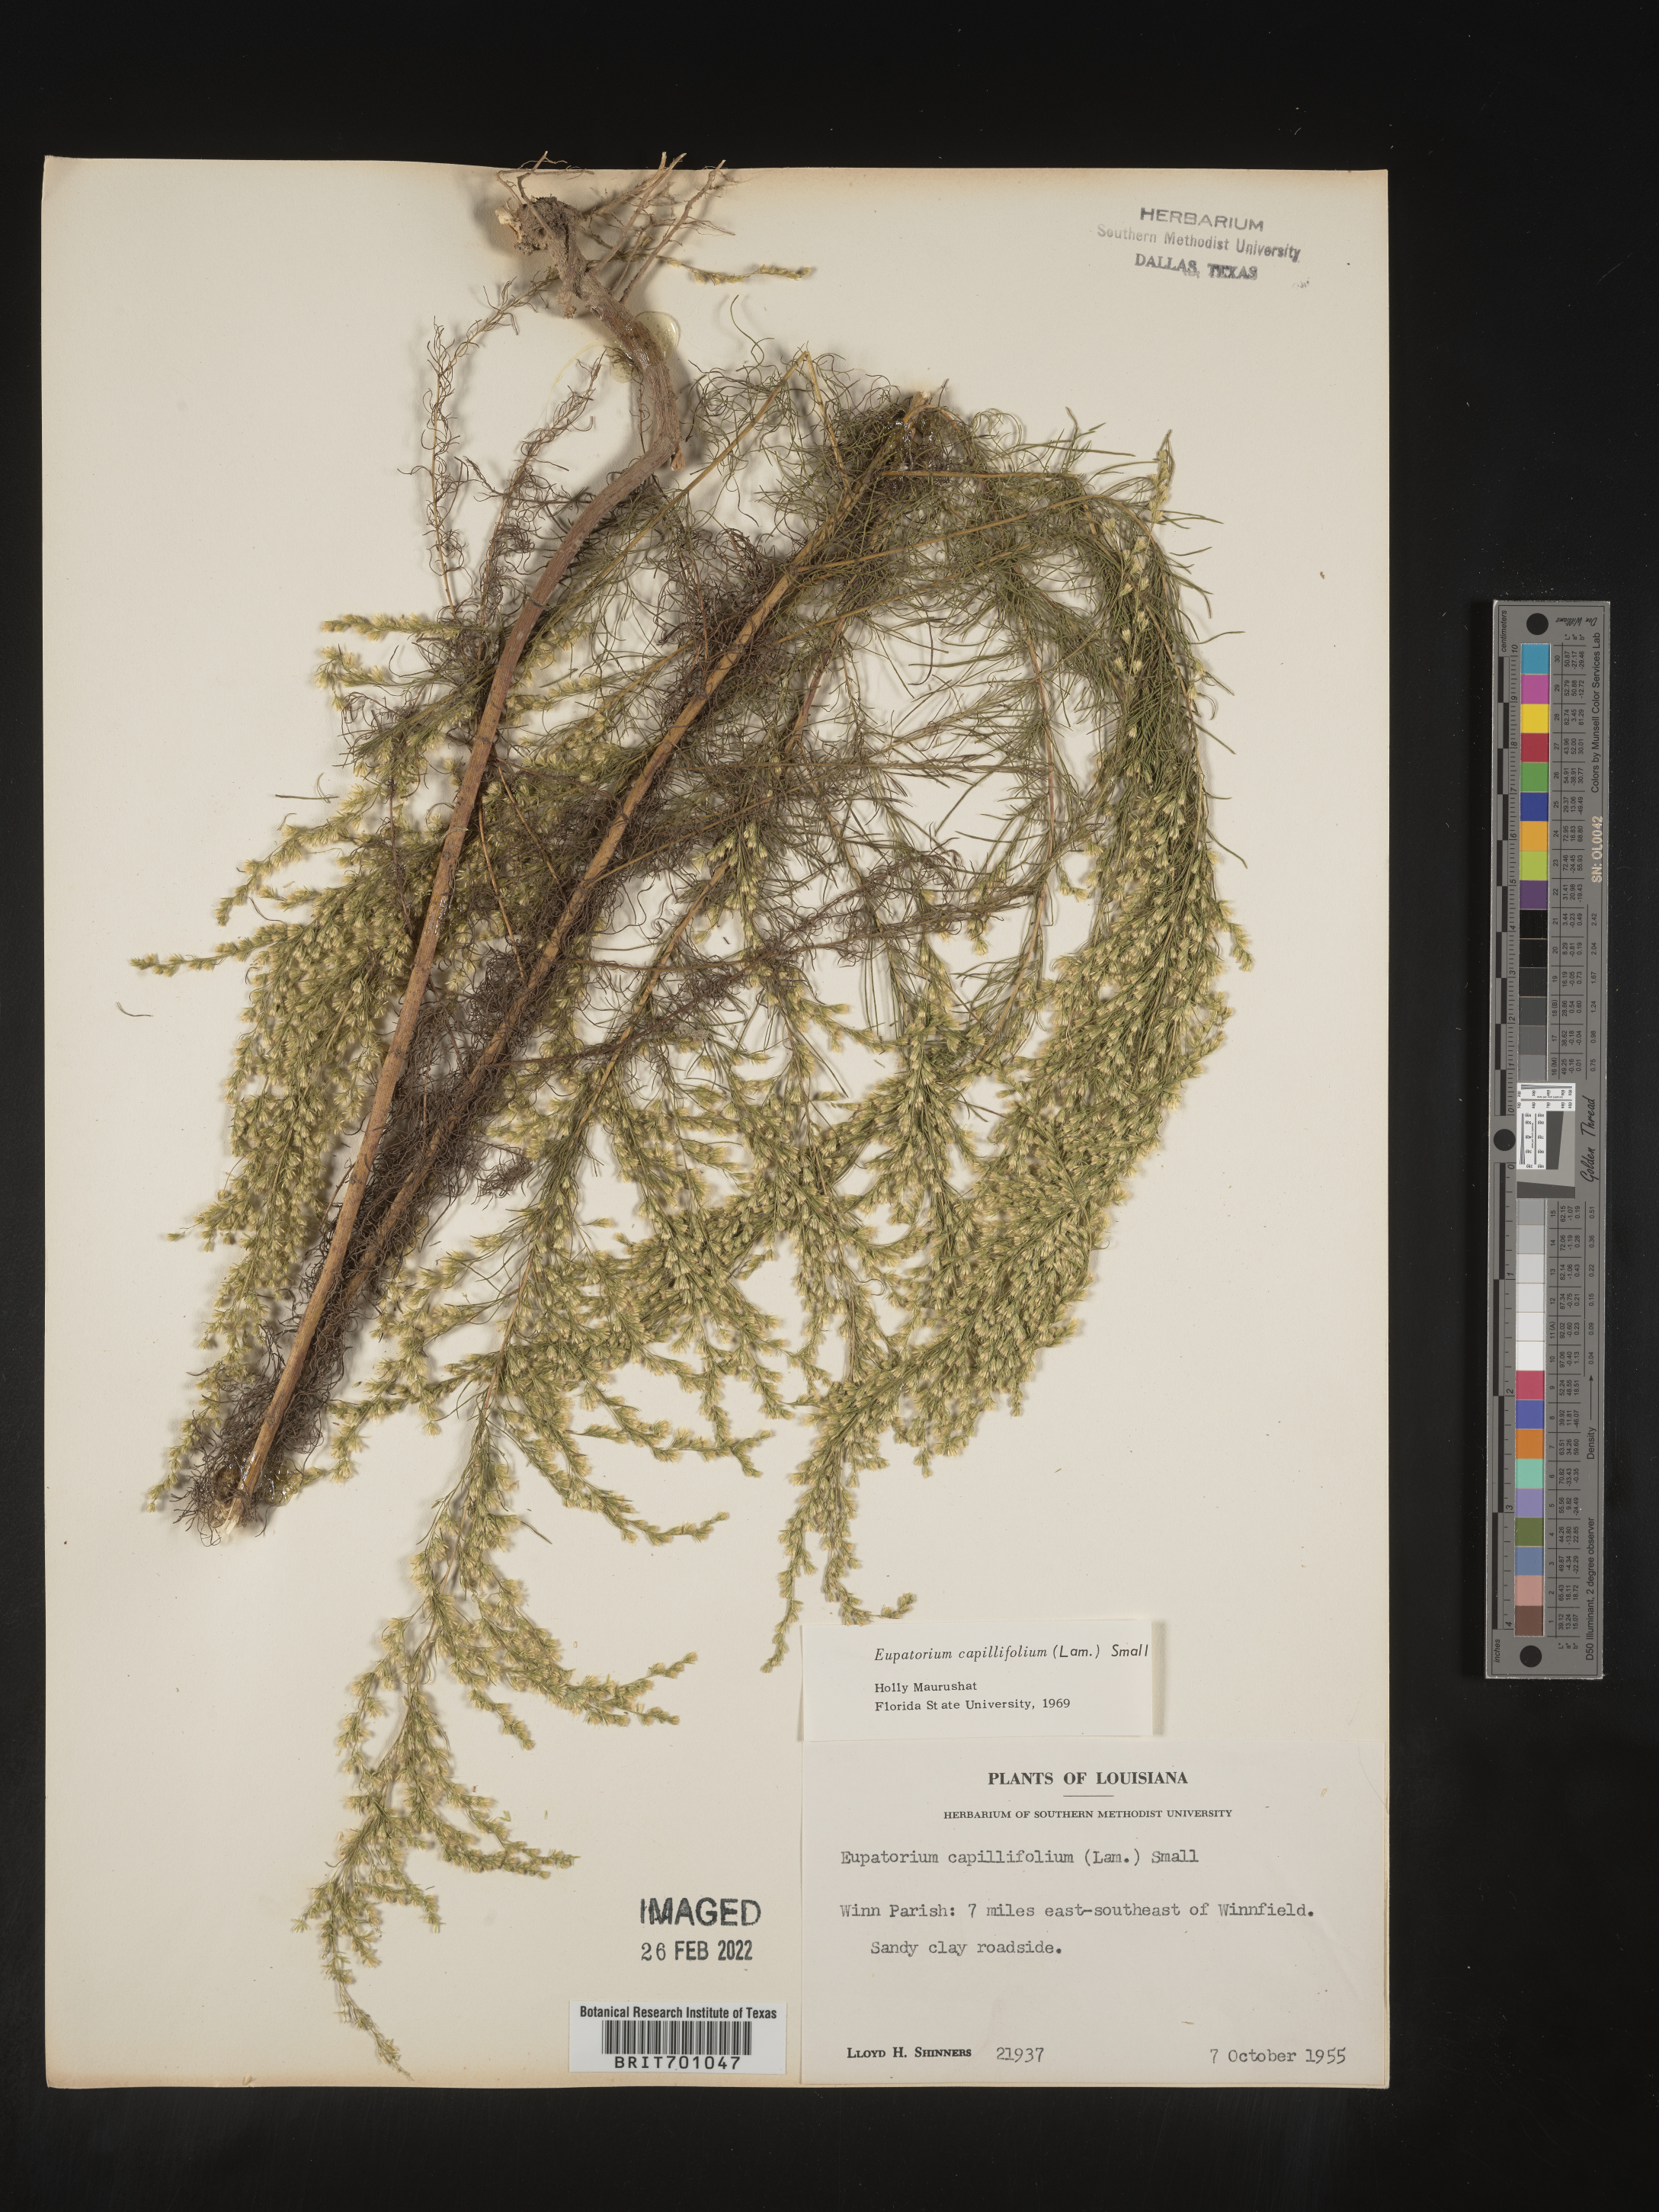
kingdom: Plantae
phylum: Tracheophyta
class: Magnoliopsida
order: Asterales
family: Asteraceae
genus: Eupatorium
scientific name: Eupatorium capillifolium
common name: Dog-fennel
